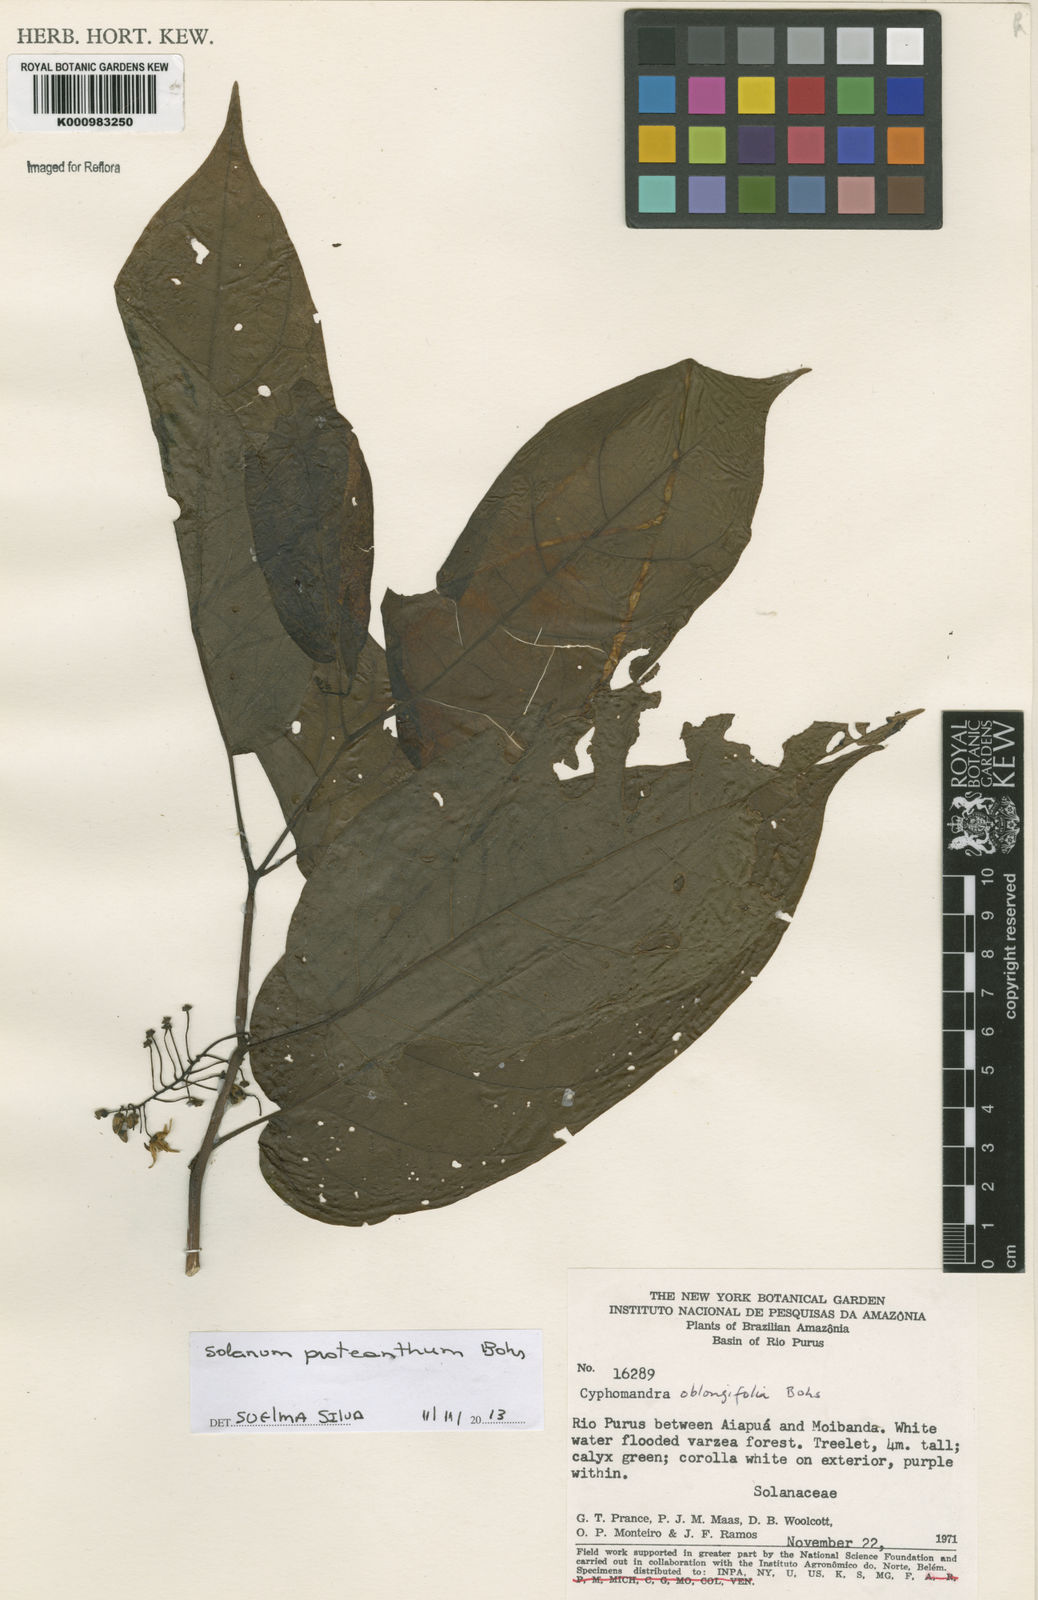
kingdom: Plantae
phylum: Tracheophyta
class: Magnoliopsida
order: Solanales
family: Solanaceae
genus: Solanum
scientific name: Solanum proteanthum
